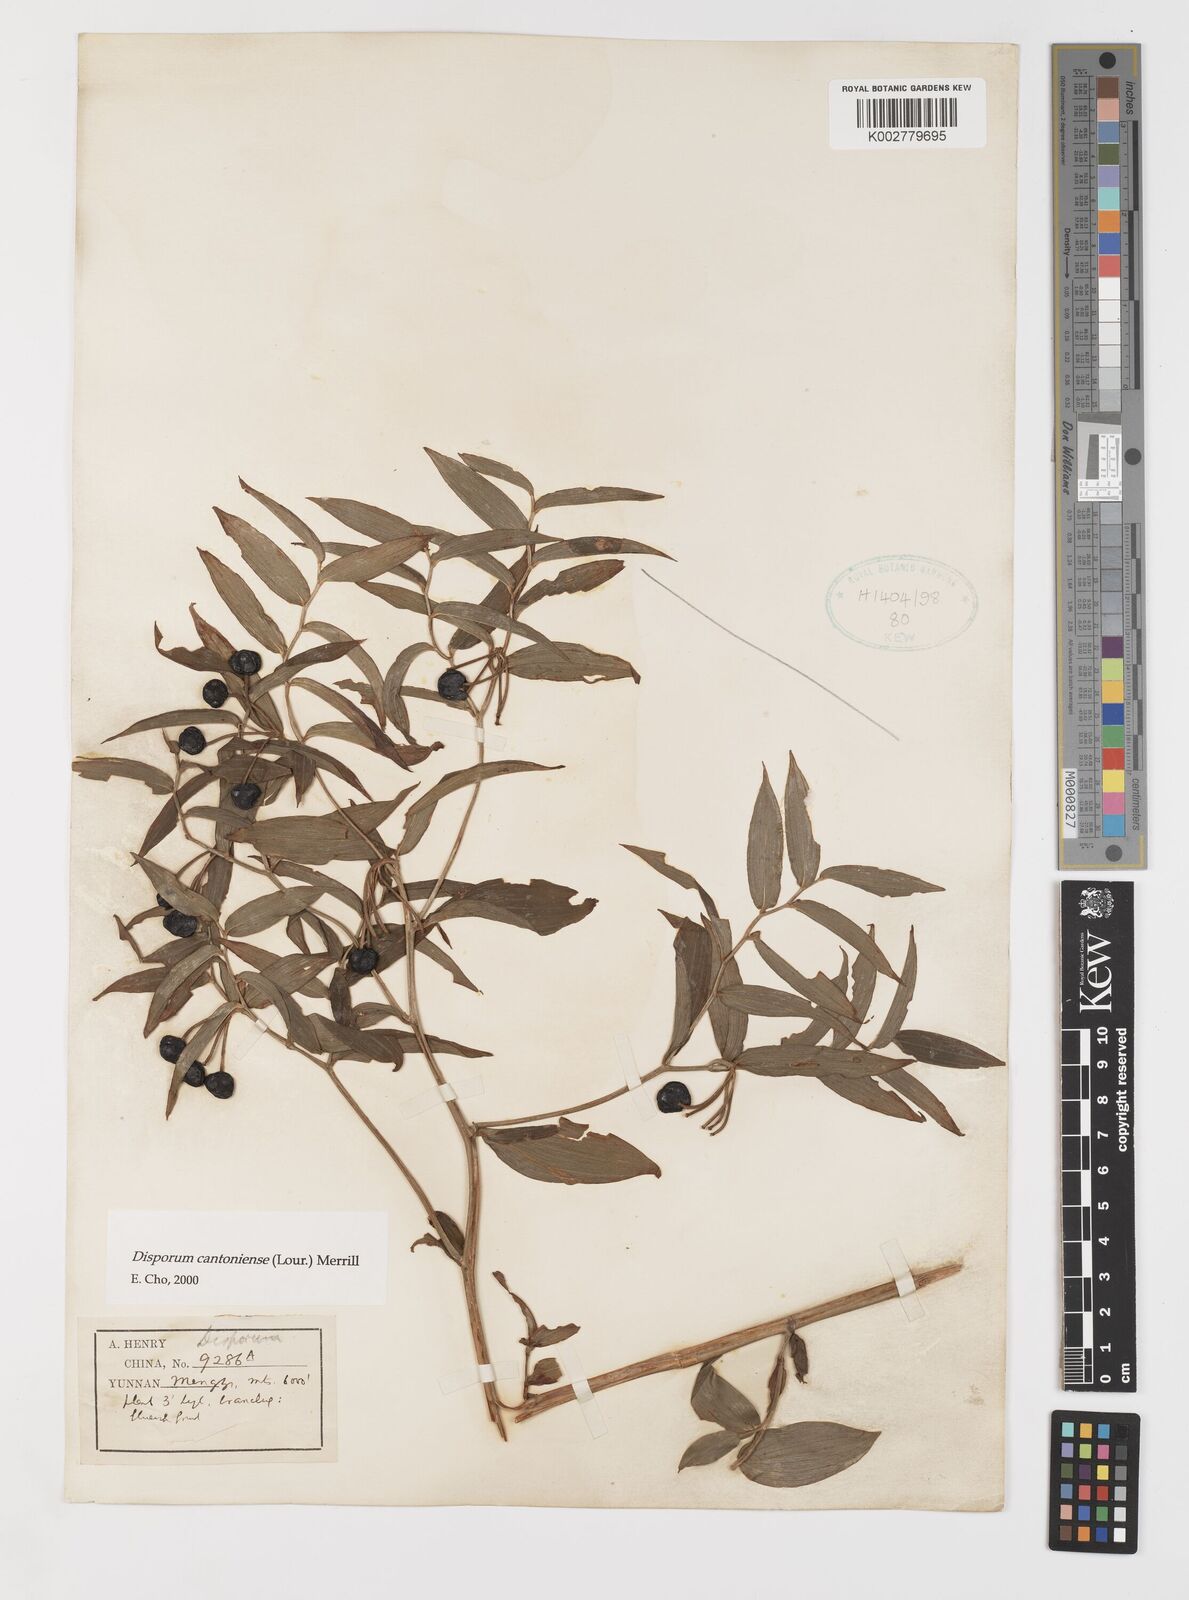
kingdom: Plantae
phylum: Tracheophyta
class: Liliopsida
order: Liliales
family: Colchicaceae
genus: Disporum
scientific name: Disporum cantoniense
